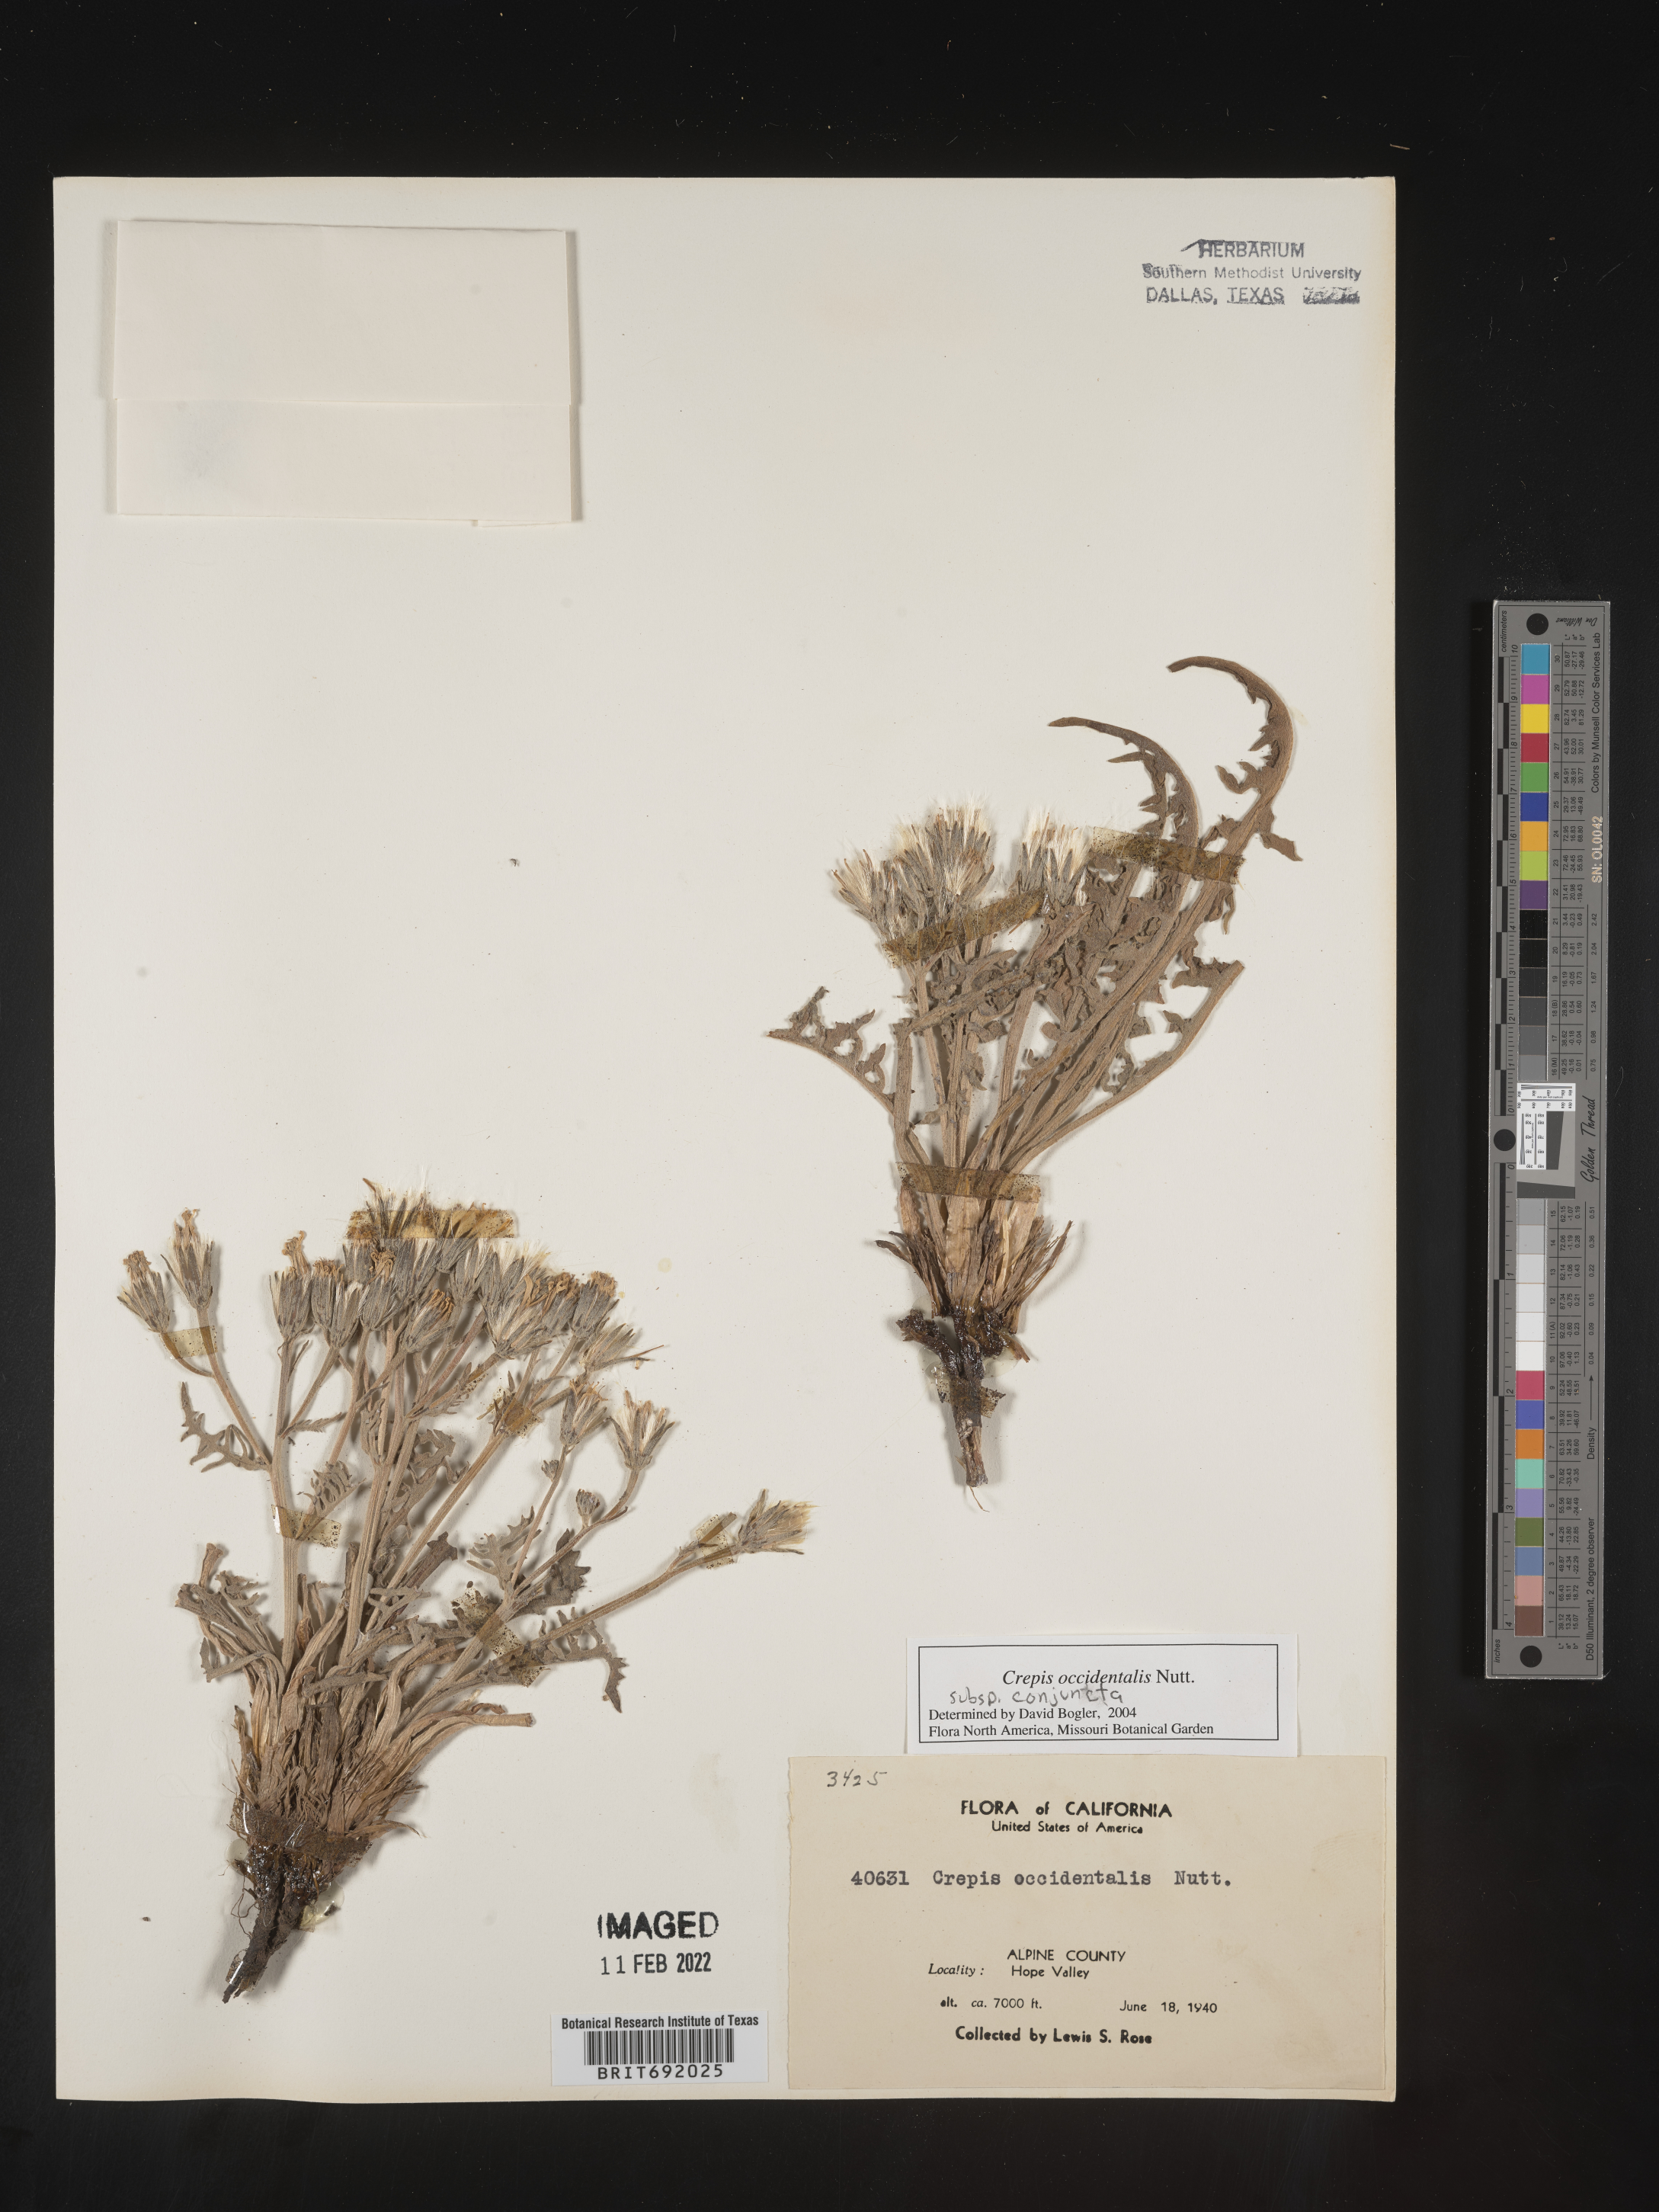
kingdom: Plantae
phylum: Tracheophyta
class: Magnoliopsida
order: Asterales
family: Asteraceae
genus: Crepis
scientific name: Crepis occidentalis
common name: Gray hawk's-beard
